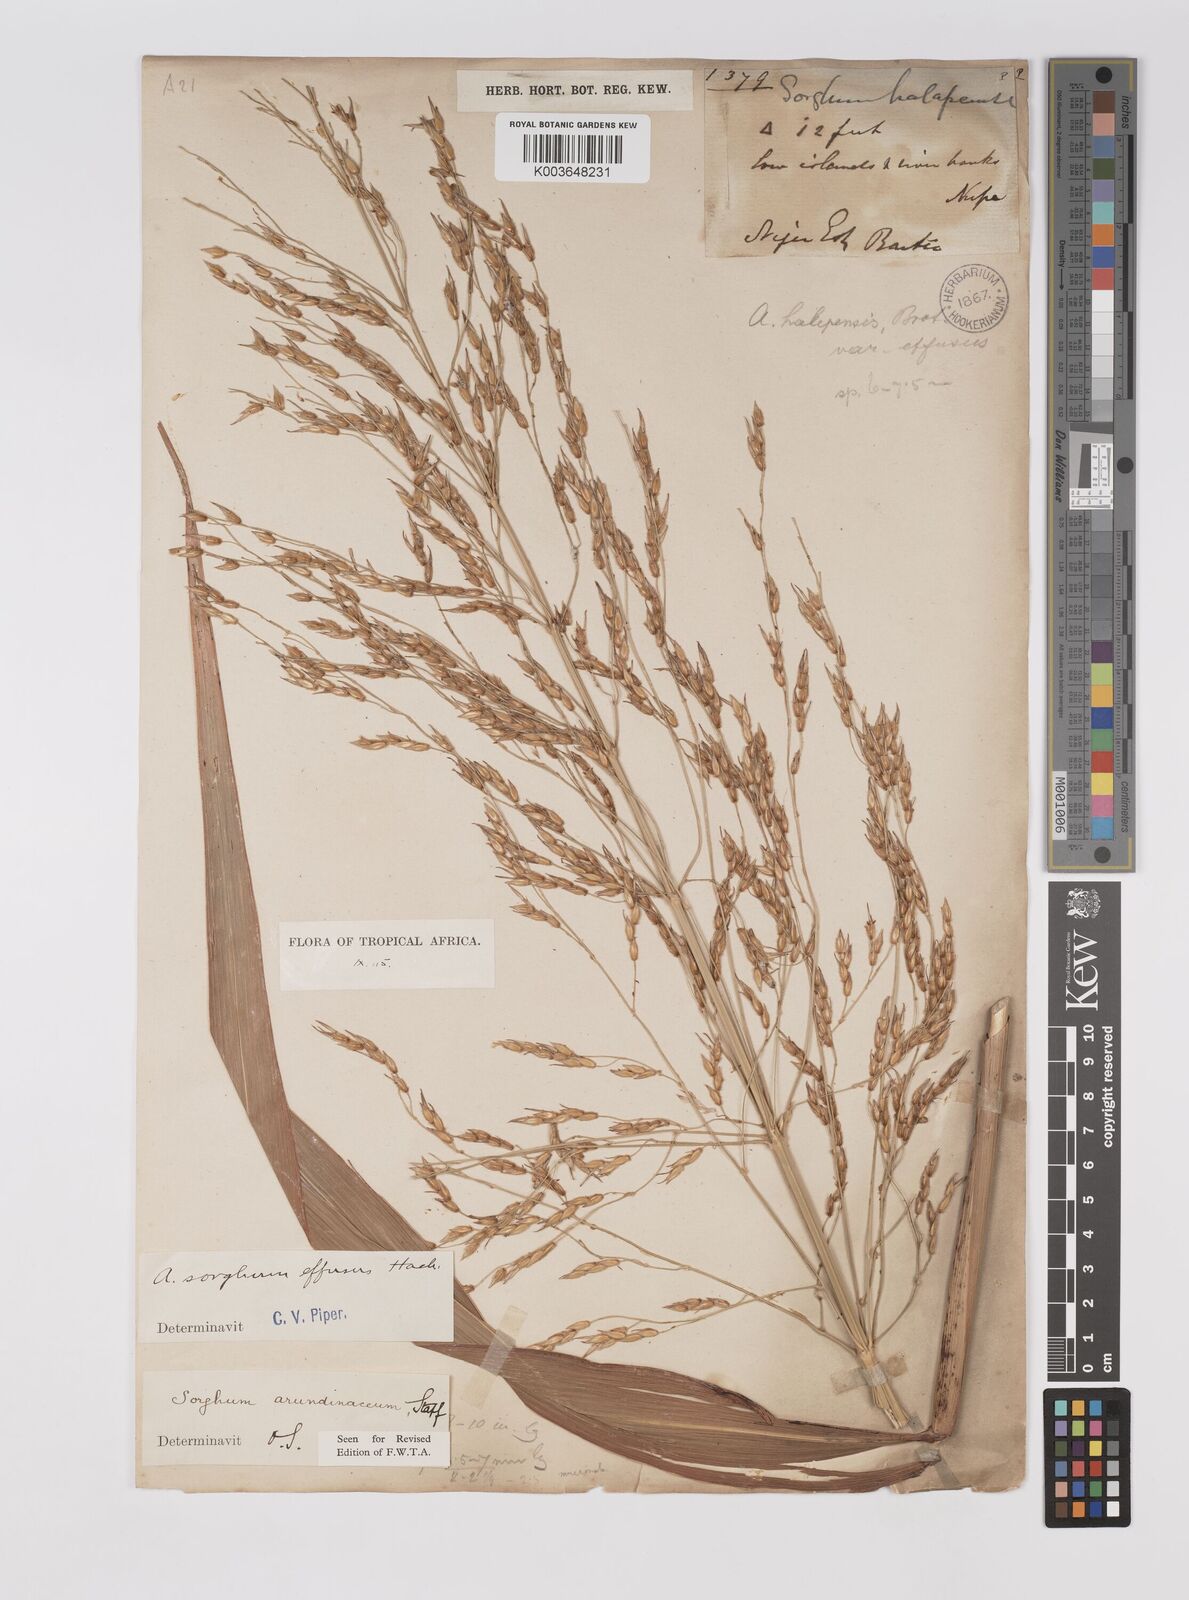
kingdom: Plantae
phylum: Tracheophyta
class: Liliopsida
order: Poales
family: Poaceae
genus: Sorghum
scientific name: Sorghum arundinaceum
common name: Sorghum
